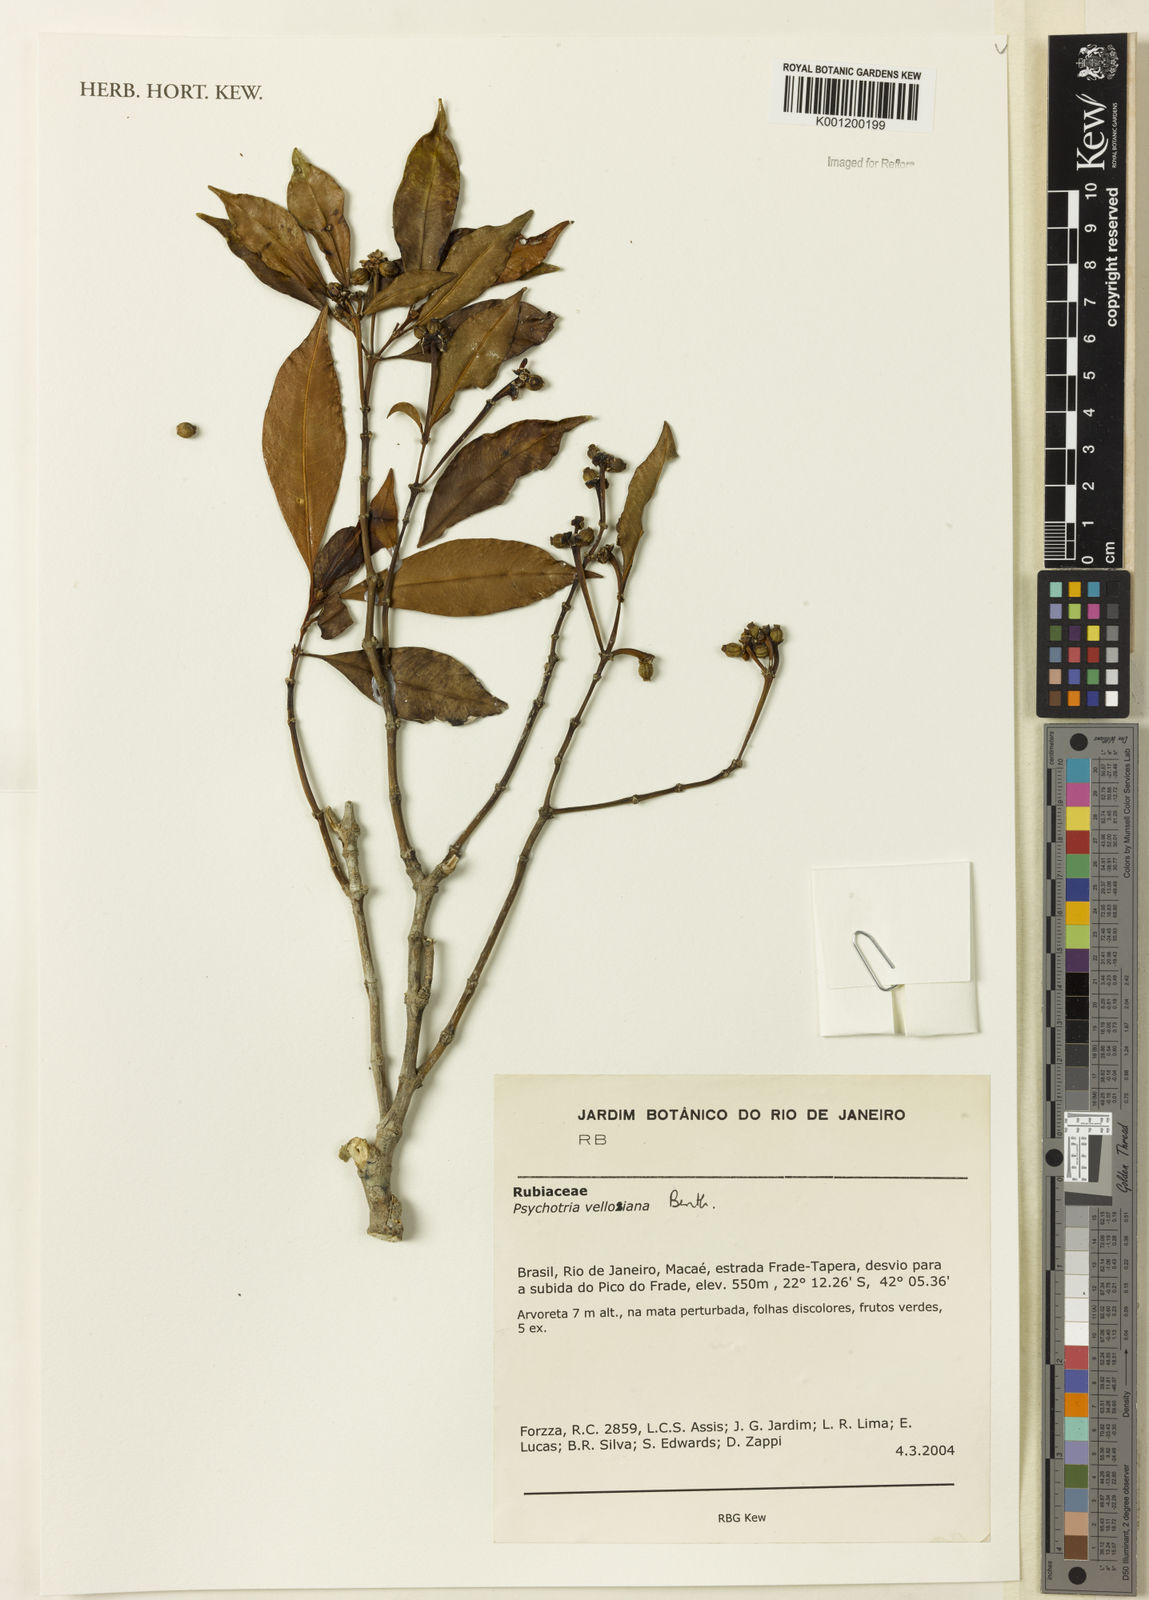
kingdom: Plantae
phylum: Tracheophyta
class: Magnoliopsida
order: Gentianales
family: Rubiaceae
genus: Palicourea
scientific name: Palicourea sessilis
